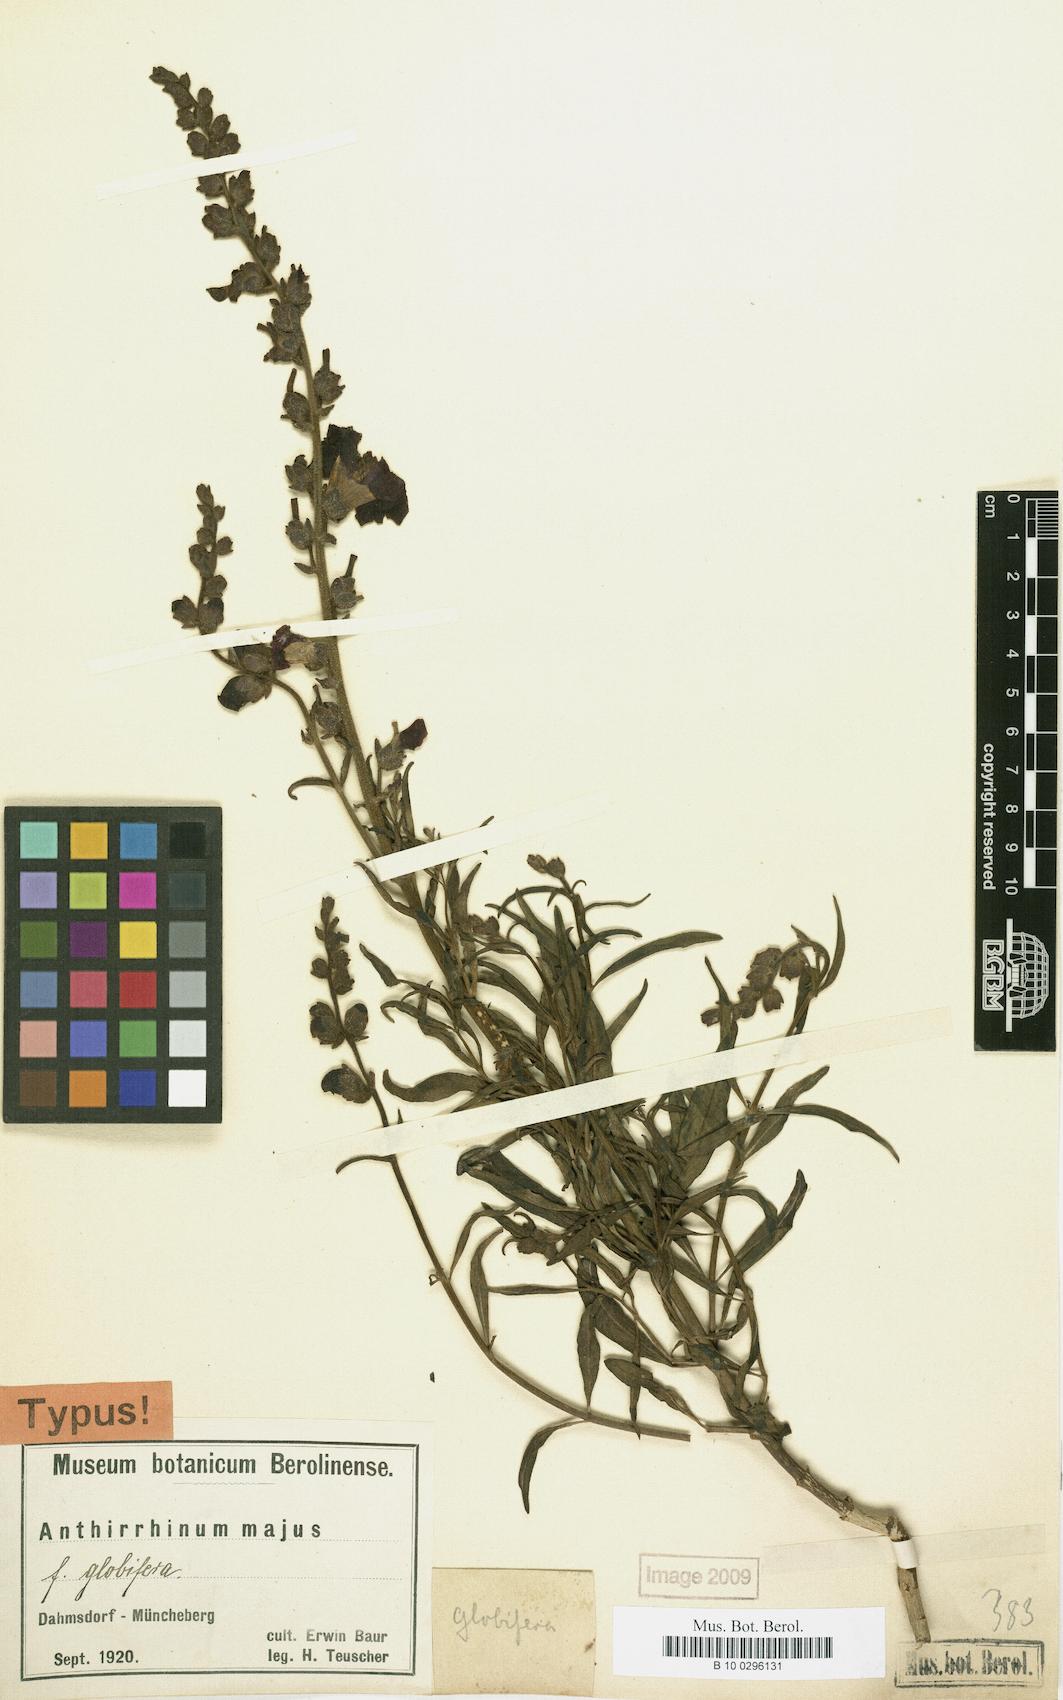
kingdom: Plantae
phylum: Tracheophyta
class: Magnoliopsida
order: Lamiales
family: Plantaginaceae
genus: Antirrhinum
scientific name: Antirrhinum majus
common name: Snapdragon
